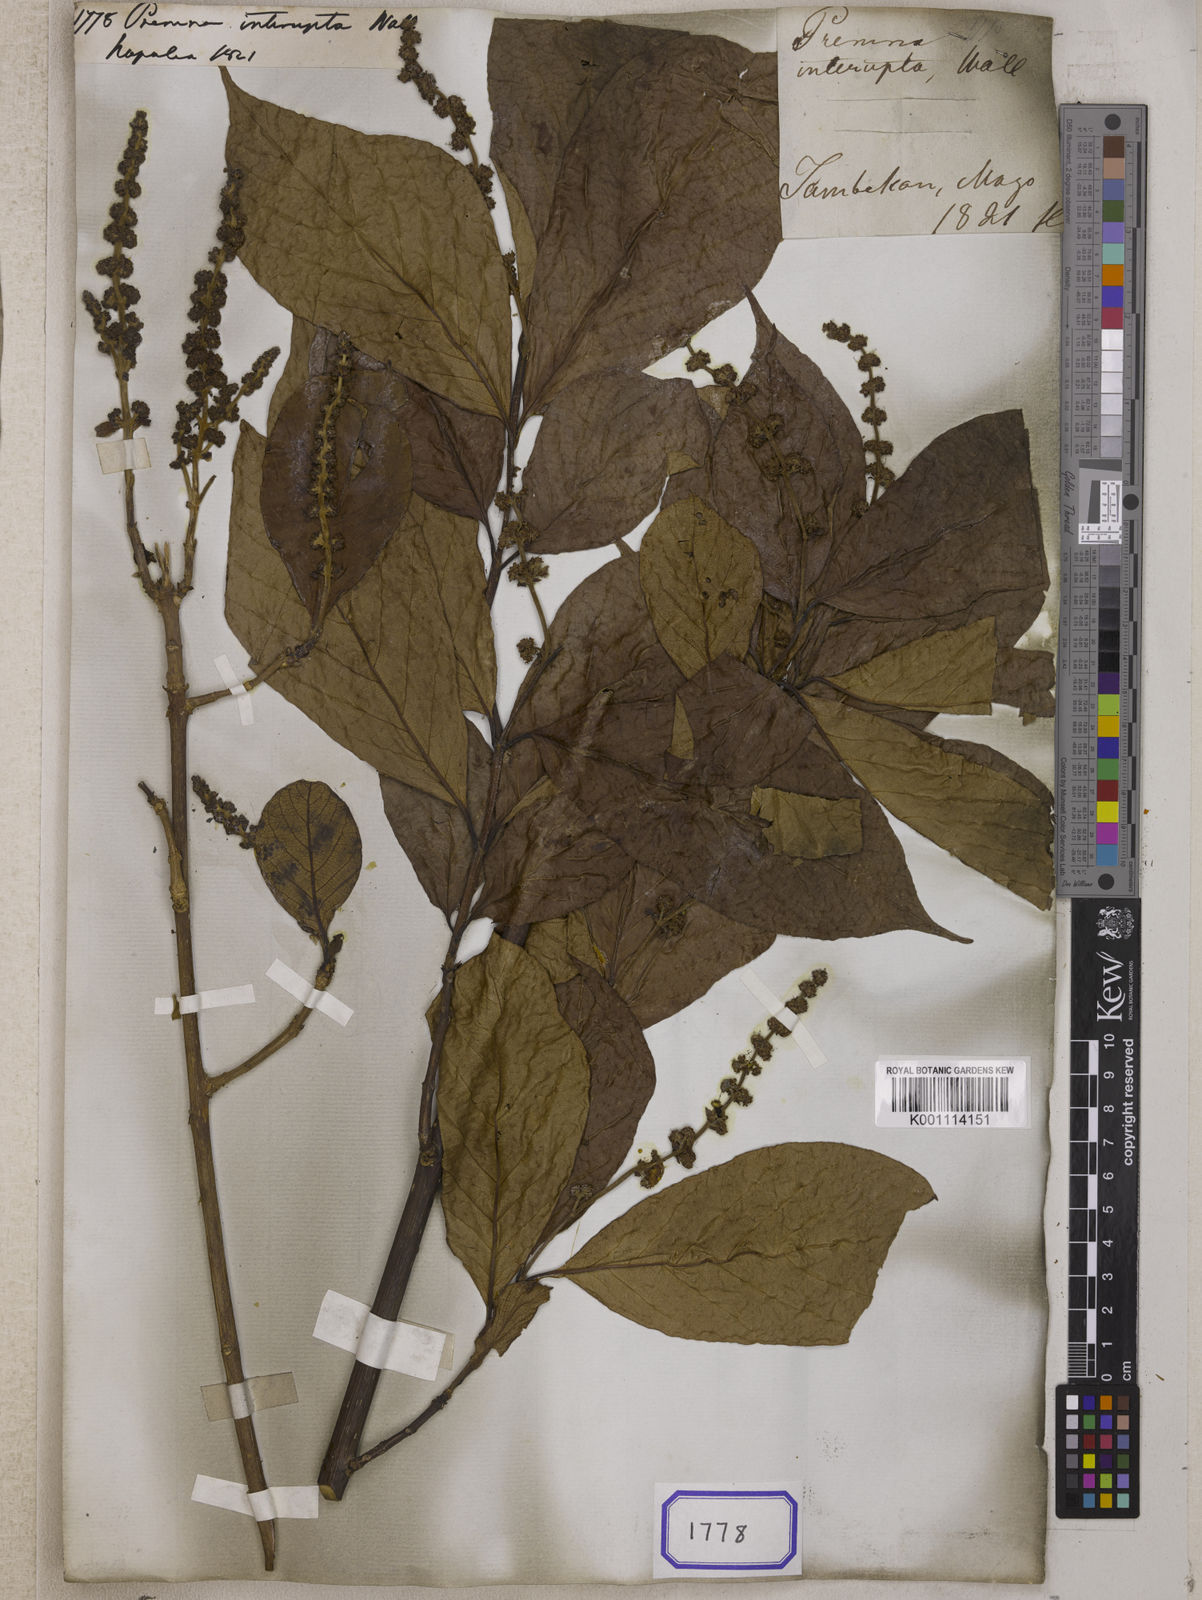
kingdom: Plantae
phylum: Tracheophyta
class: Magnoliopsida
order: Lamiales
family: Lamiaceae
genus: Premna
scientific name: Premna
